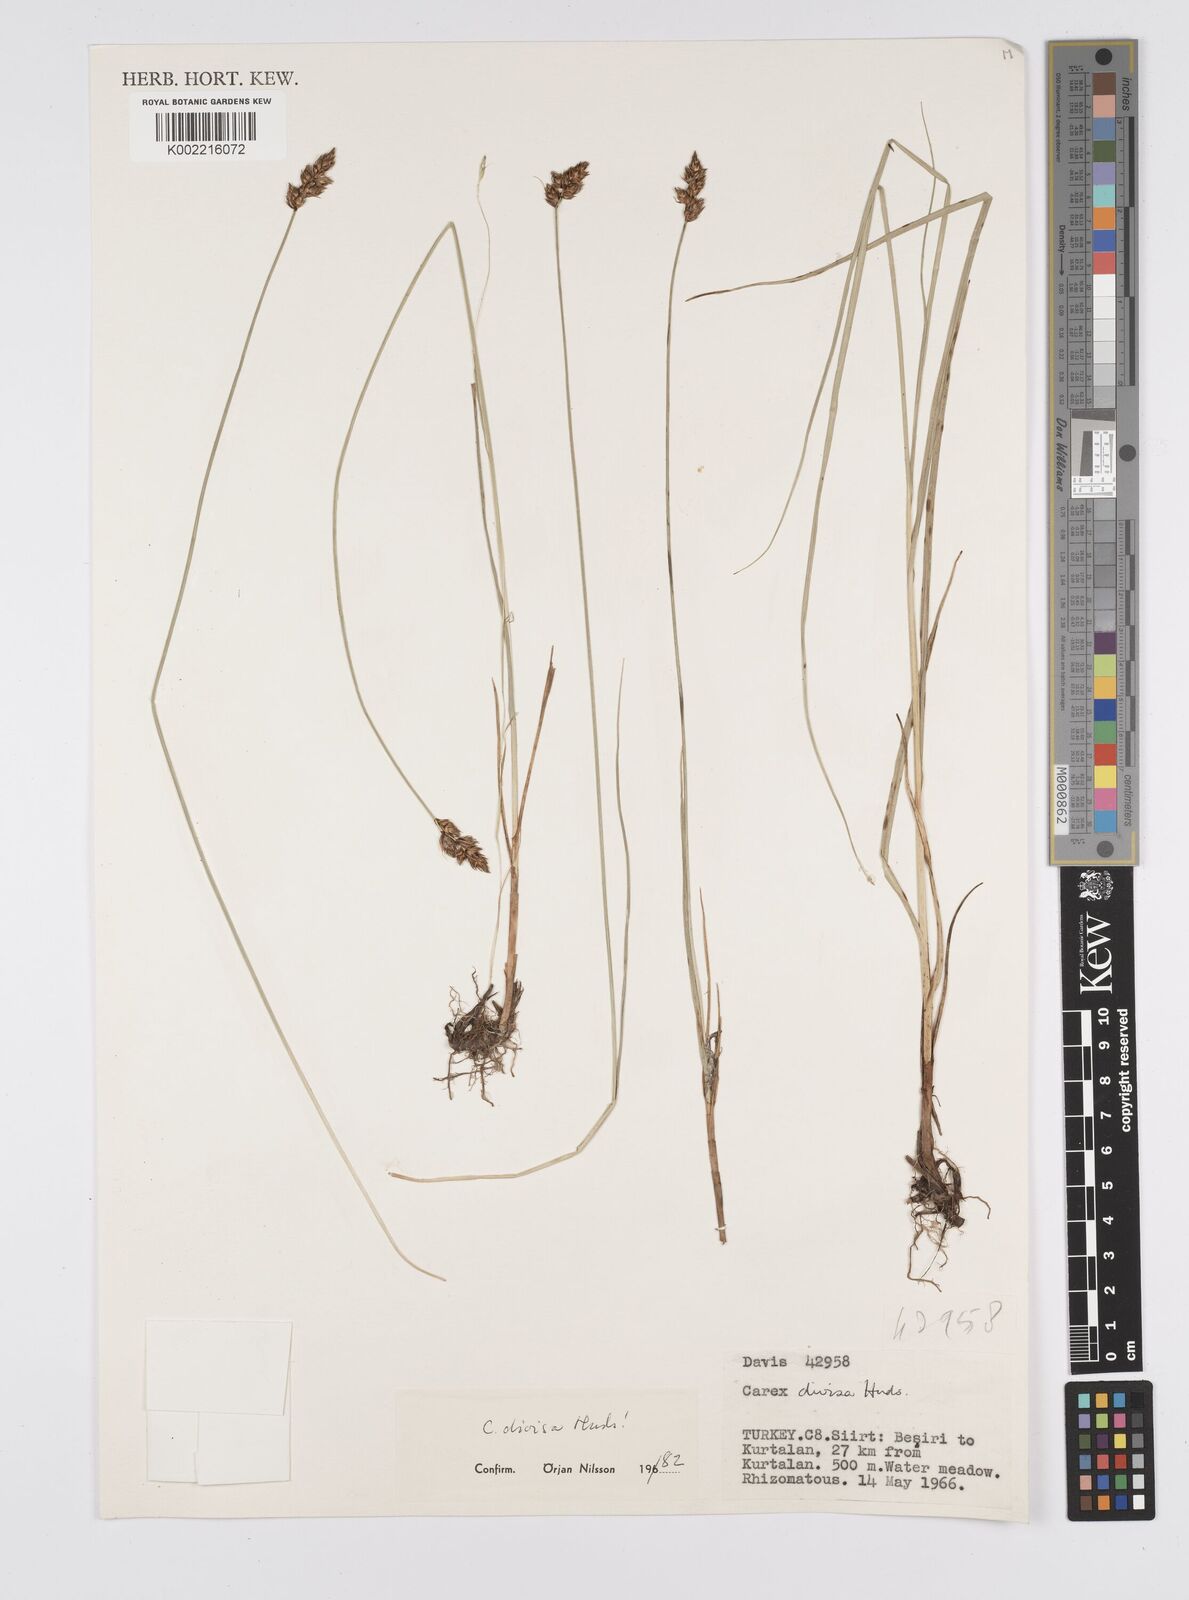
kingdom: Plantae
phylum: Tracheophyta
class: Liliopsida
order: Poales
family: Cyperaceae
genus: Carex
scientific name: Carex divisa
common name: Divided sedge
